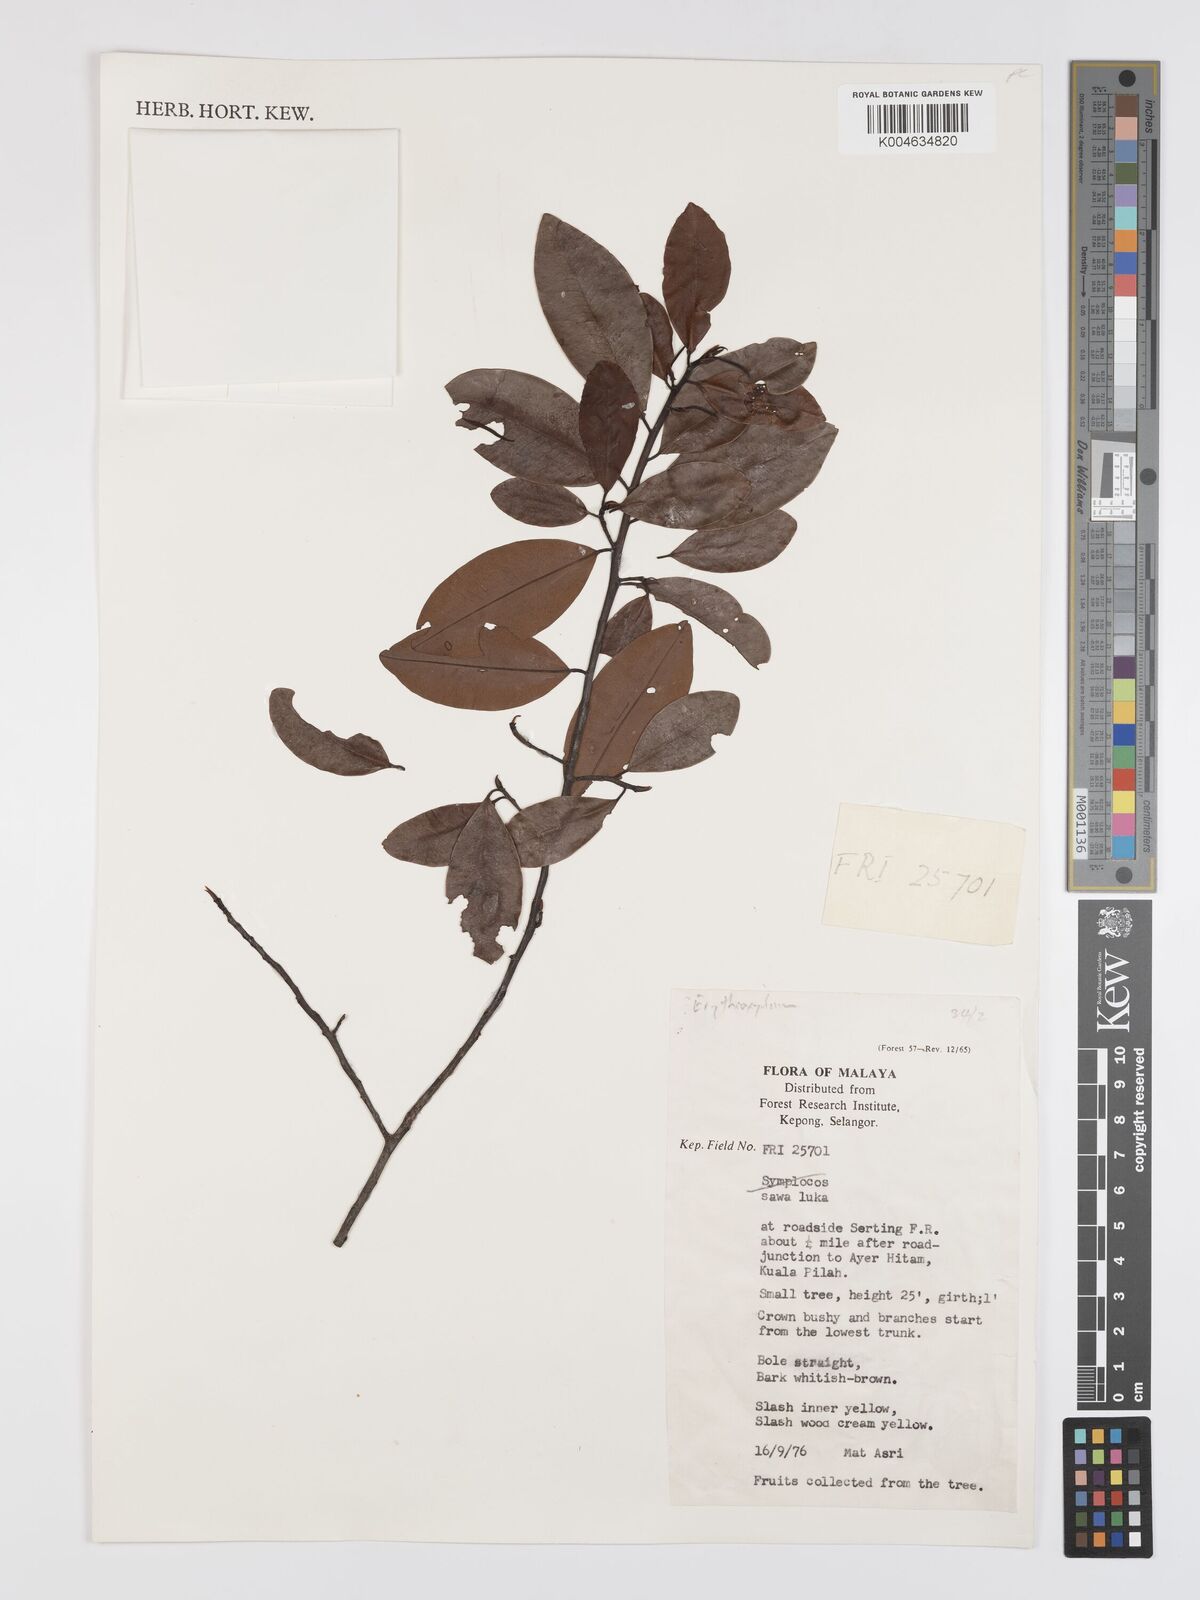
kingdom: Plantae
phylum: Tracheophyta
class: Magnoliopsida
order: Malpighiales
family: Erythroxylaceae
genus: Erythroxylum
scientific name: Erythroxylum cuneatum
